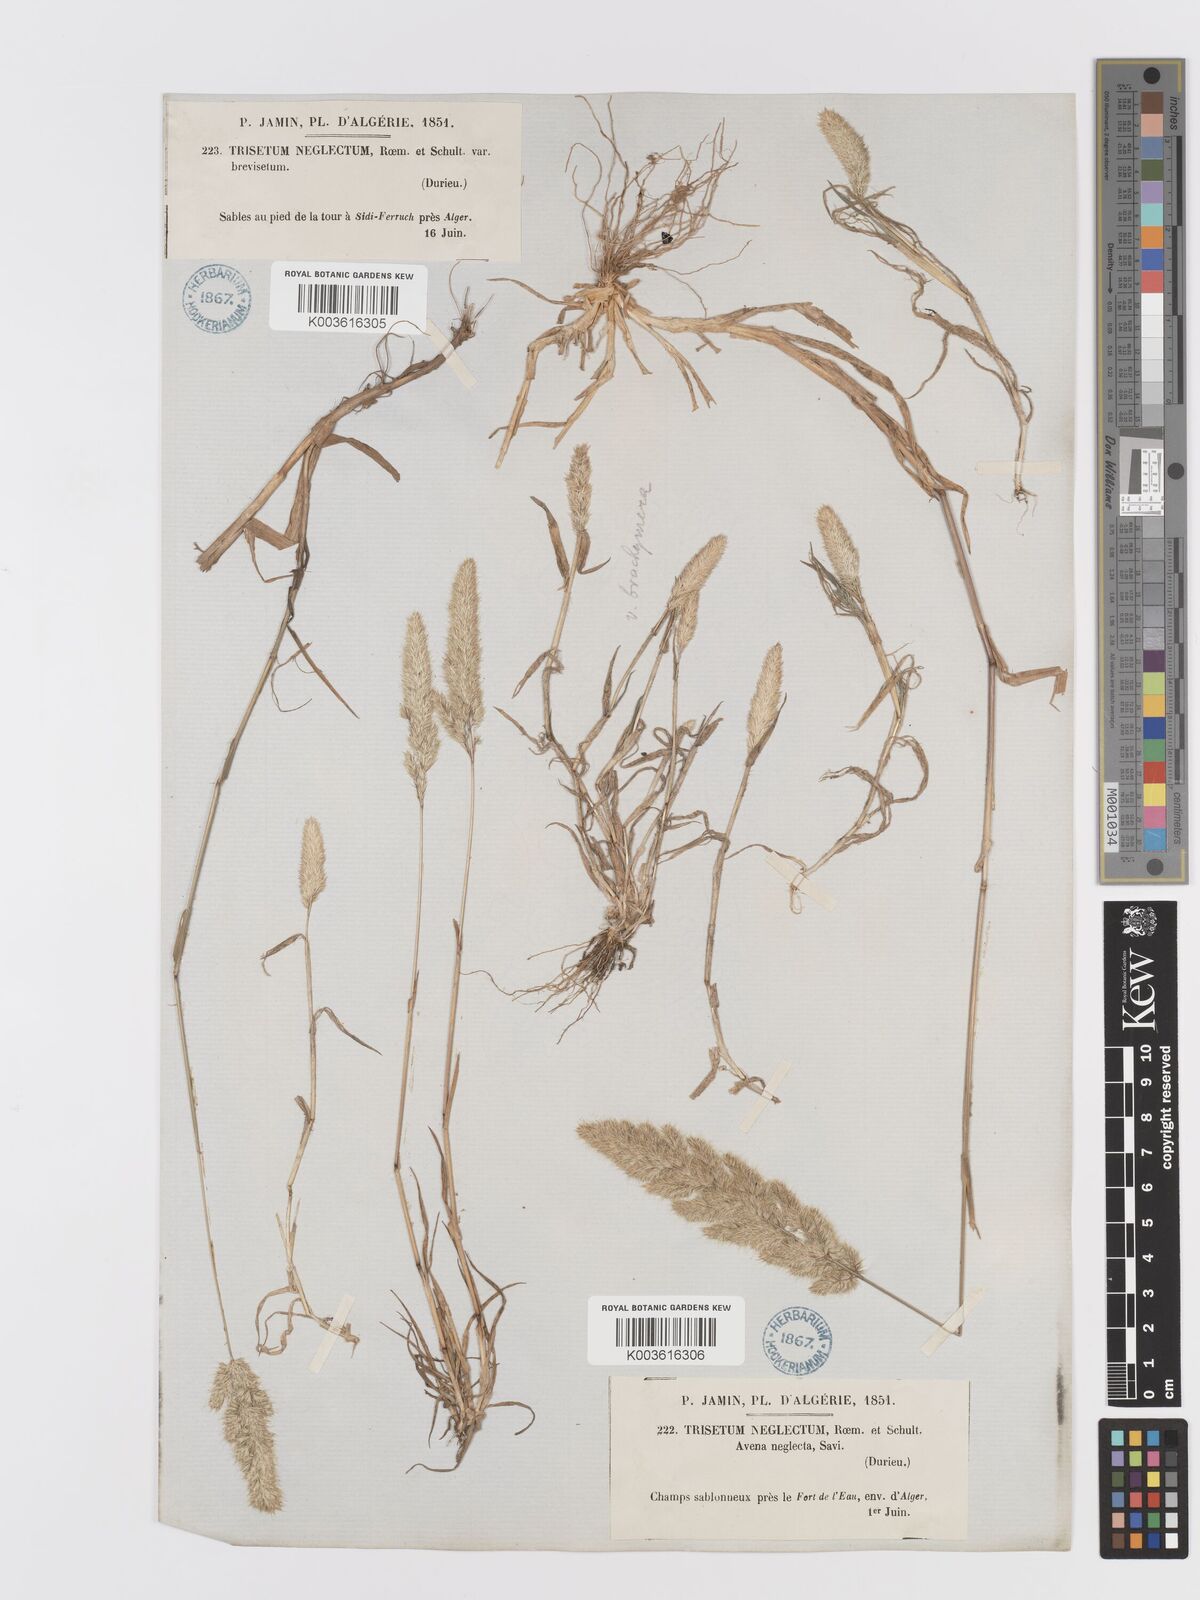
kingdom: Plantae
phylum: Tracheophyta
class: Liliopsida
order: Poales
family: Poaceae
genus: Trisetaria
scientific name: Trisetaria panicea
